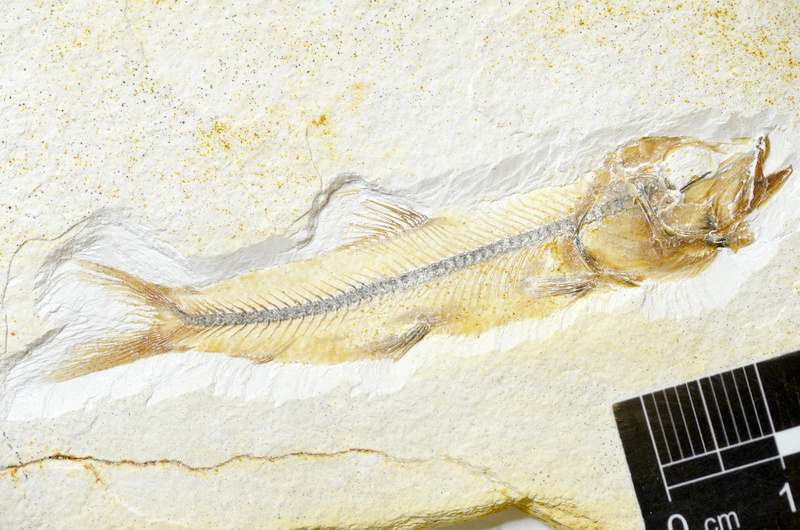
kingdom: Animalia
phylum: Chordata
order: Salmoniformes
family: Orthogonikleithridae
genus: Orthogonikleithrus
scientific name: Orthogonikleithrus
